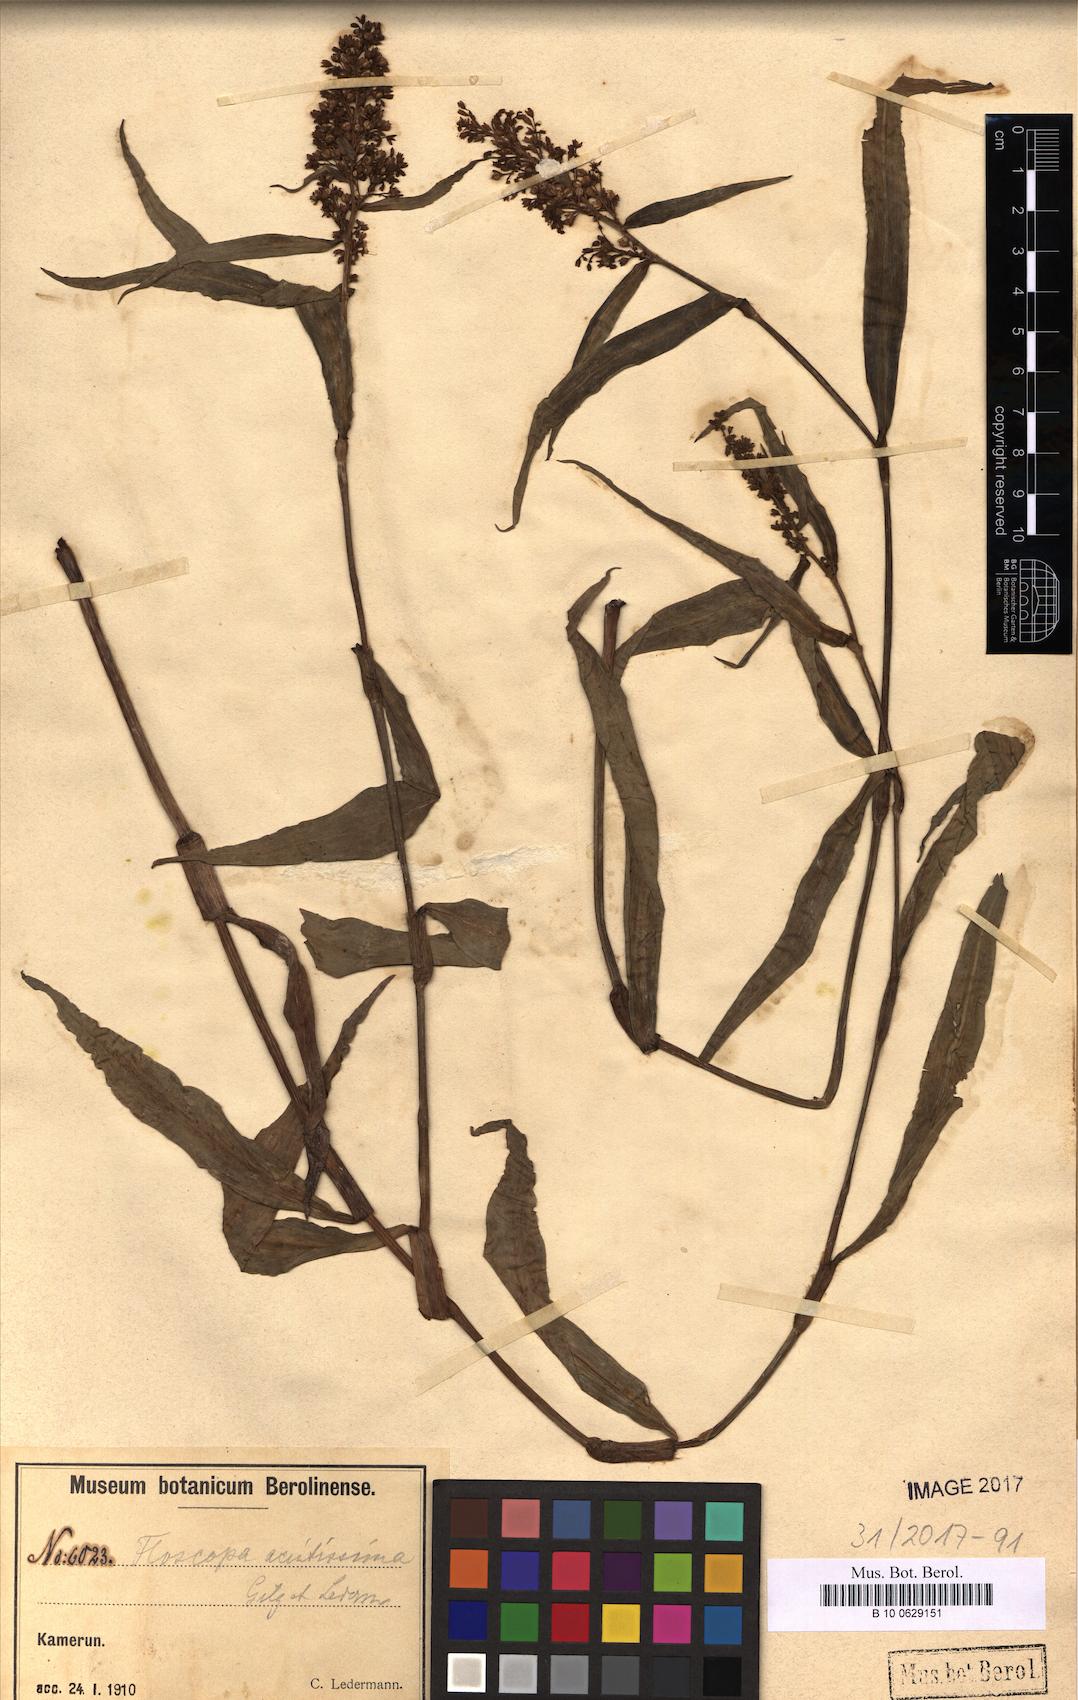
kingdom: Plantae
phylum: Tracheophyta
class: Liliopsida
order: Commelinales
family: Commelinaceae
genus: Floscopa
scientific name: Floscopa
